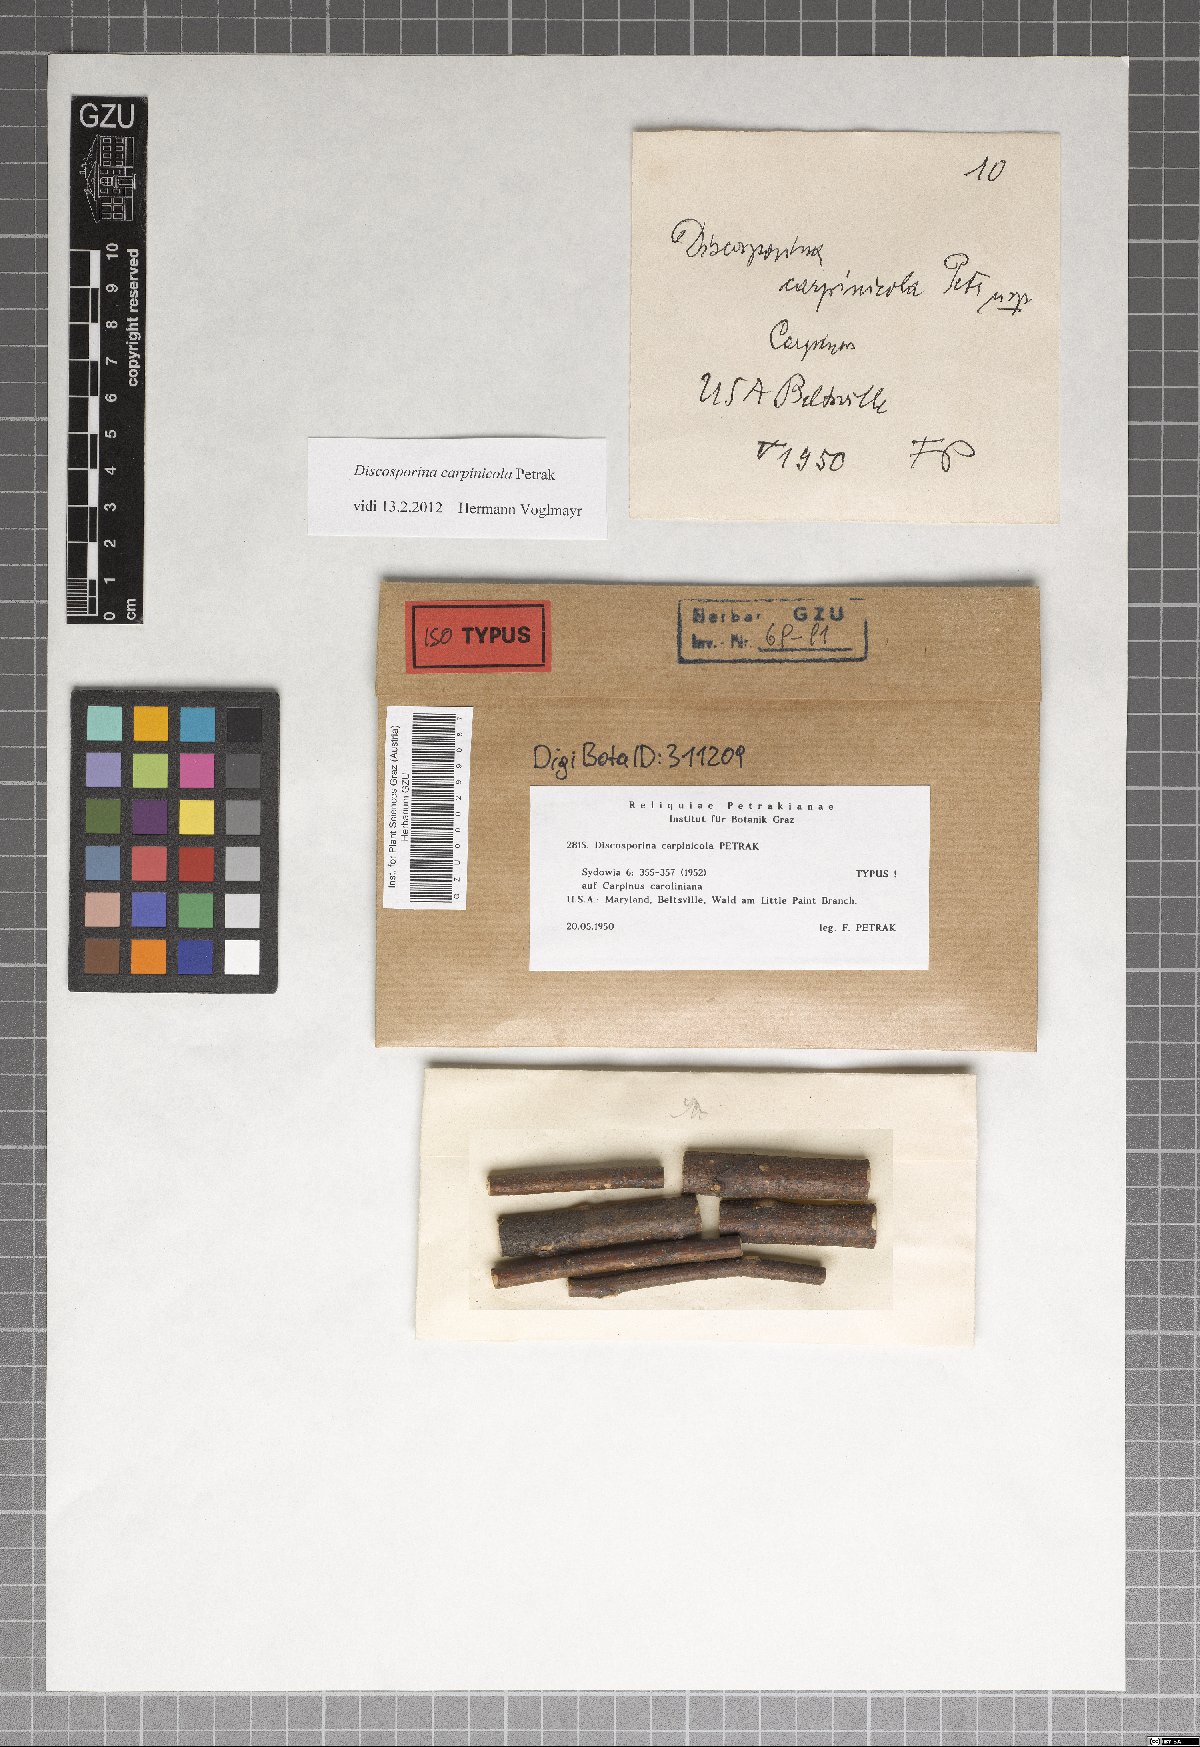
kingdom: Fungi
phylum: Ascomycota
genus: Discosporina
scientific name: Discosporina carpinicola
